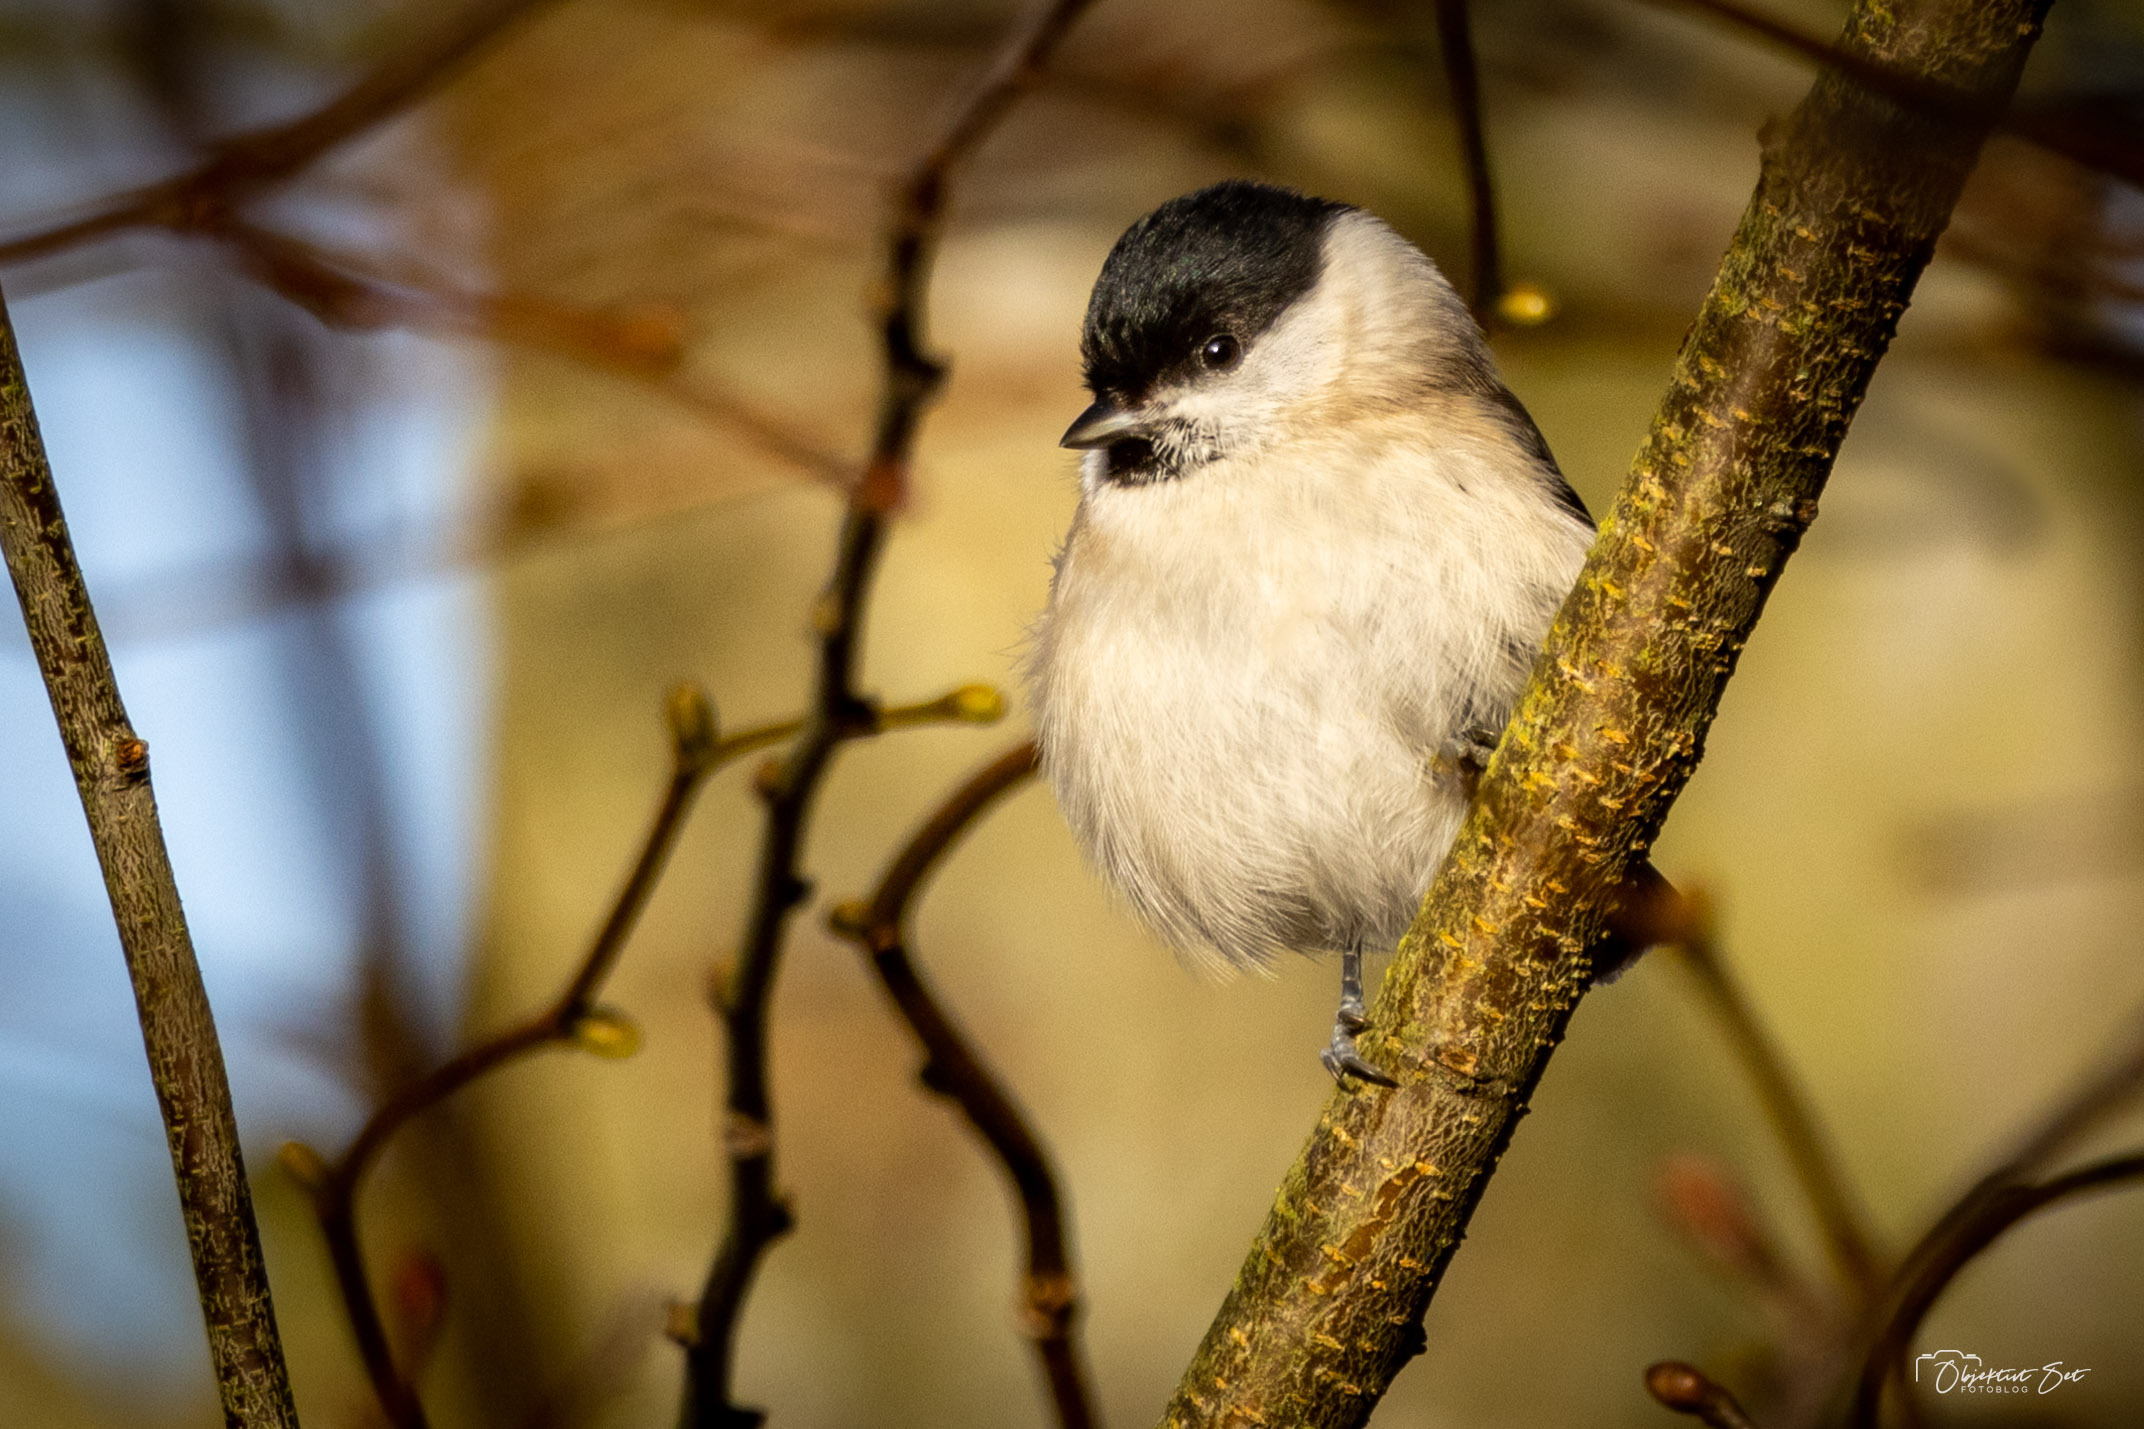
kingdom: Animalia
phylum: Chordata
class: Aves
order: Passeriformes
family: Paridae
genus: Poecile
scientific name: Poecile palustris
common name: Sumpmejse
